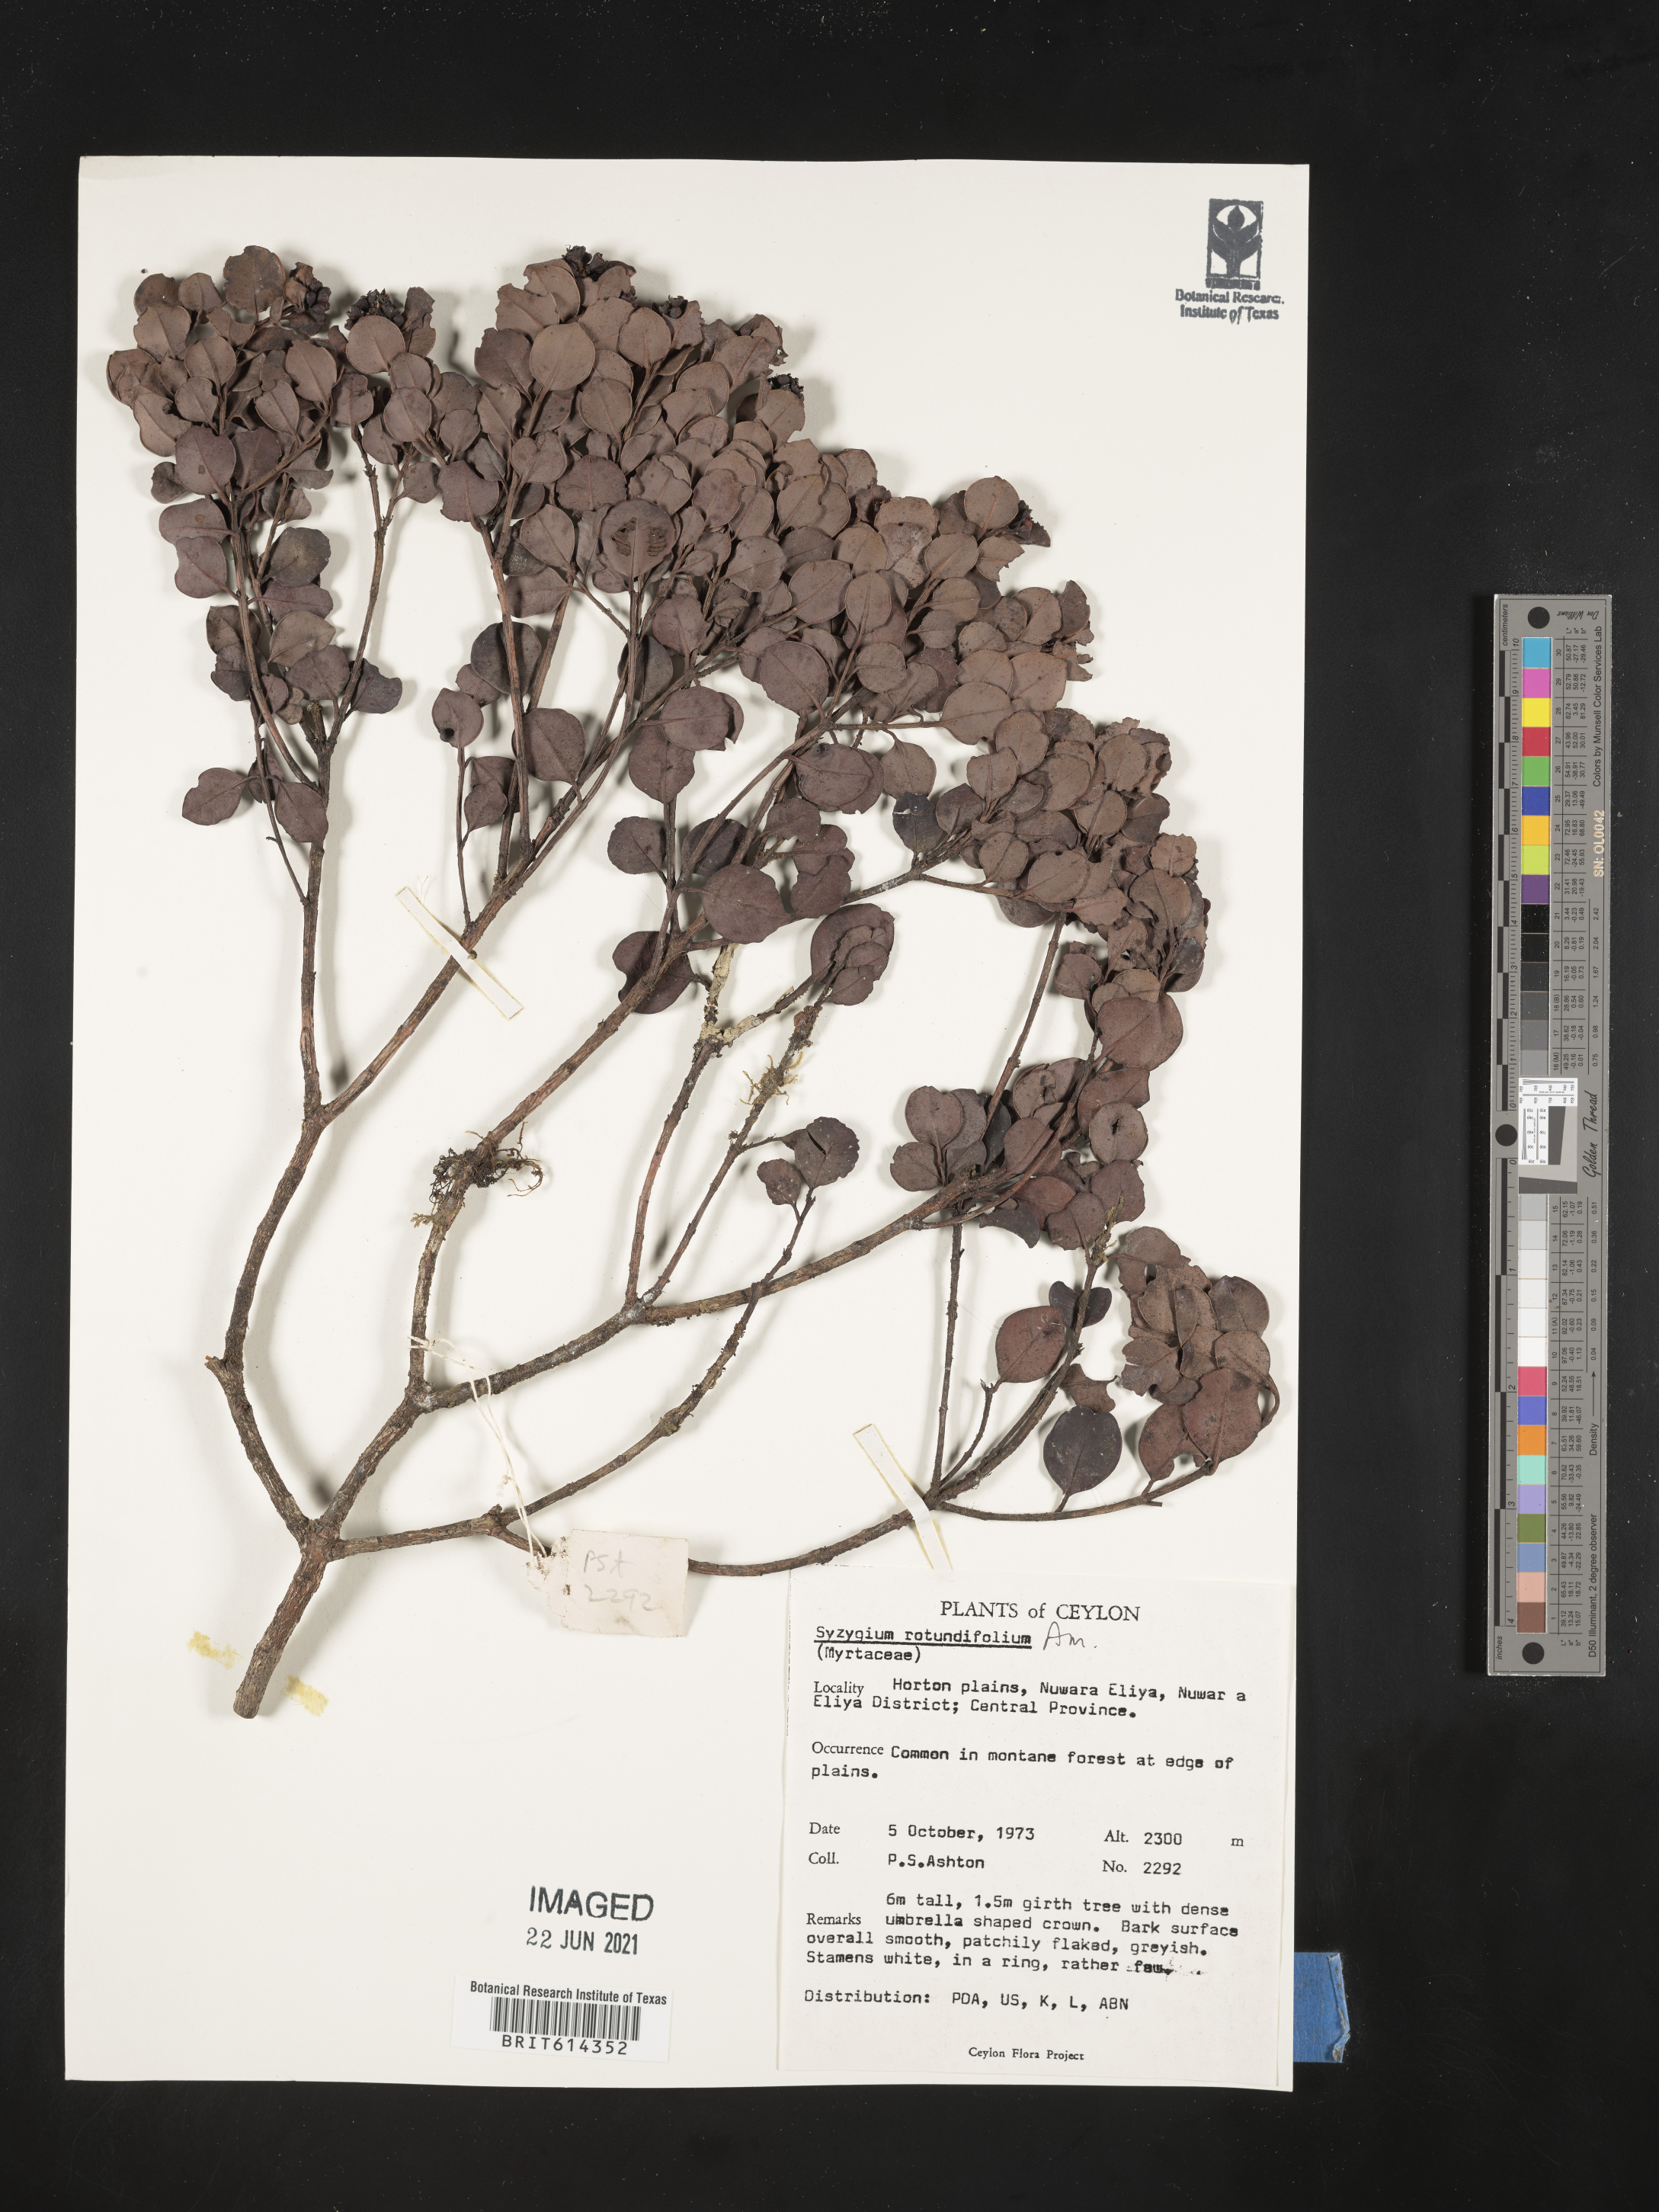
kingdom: Plantae
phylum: Tracheophyta
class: Magnoliopsida
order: Myrtales
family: Myrtaceae
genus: Syzygium
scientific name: Syzygium rotundifolium
